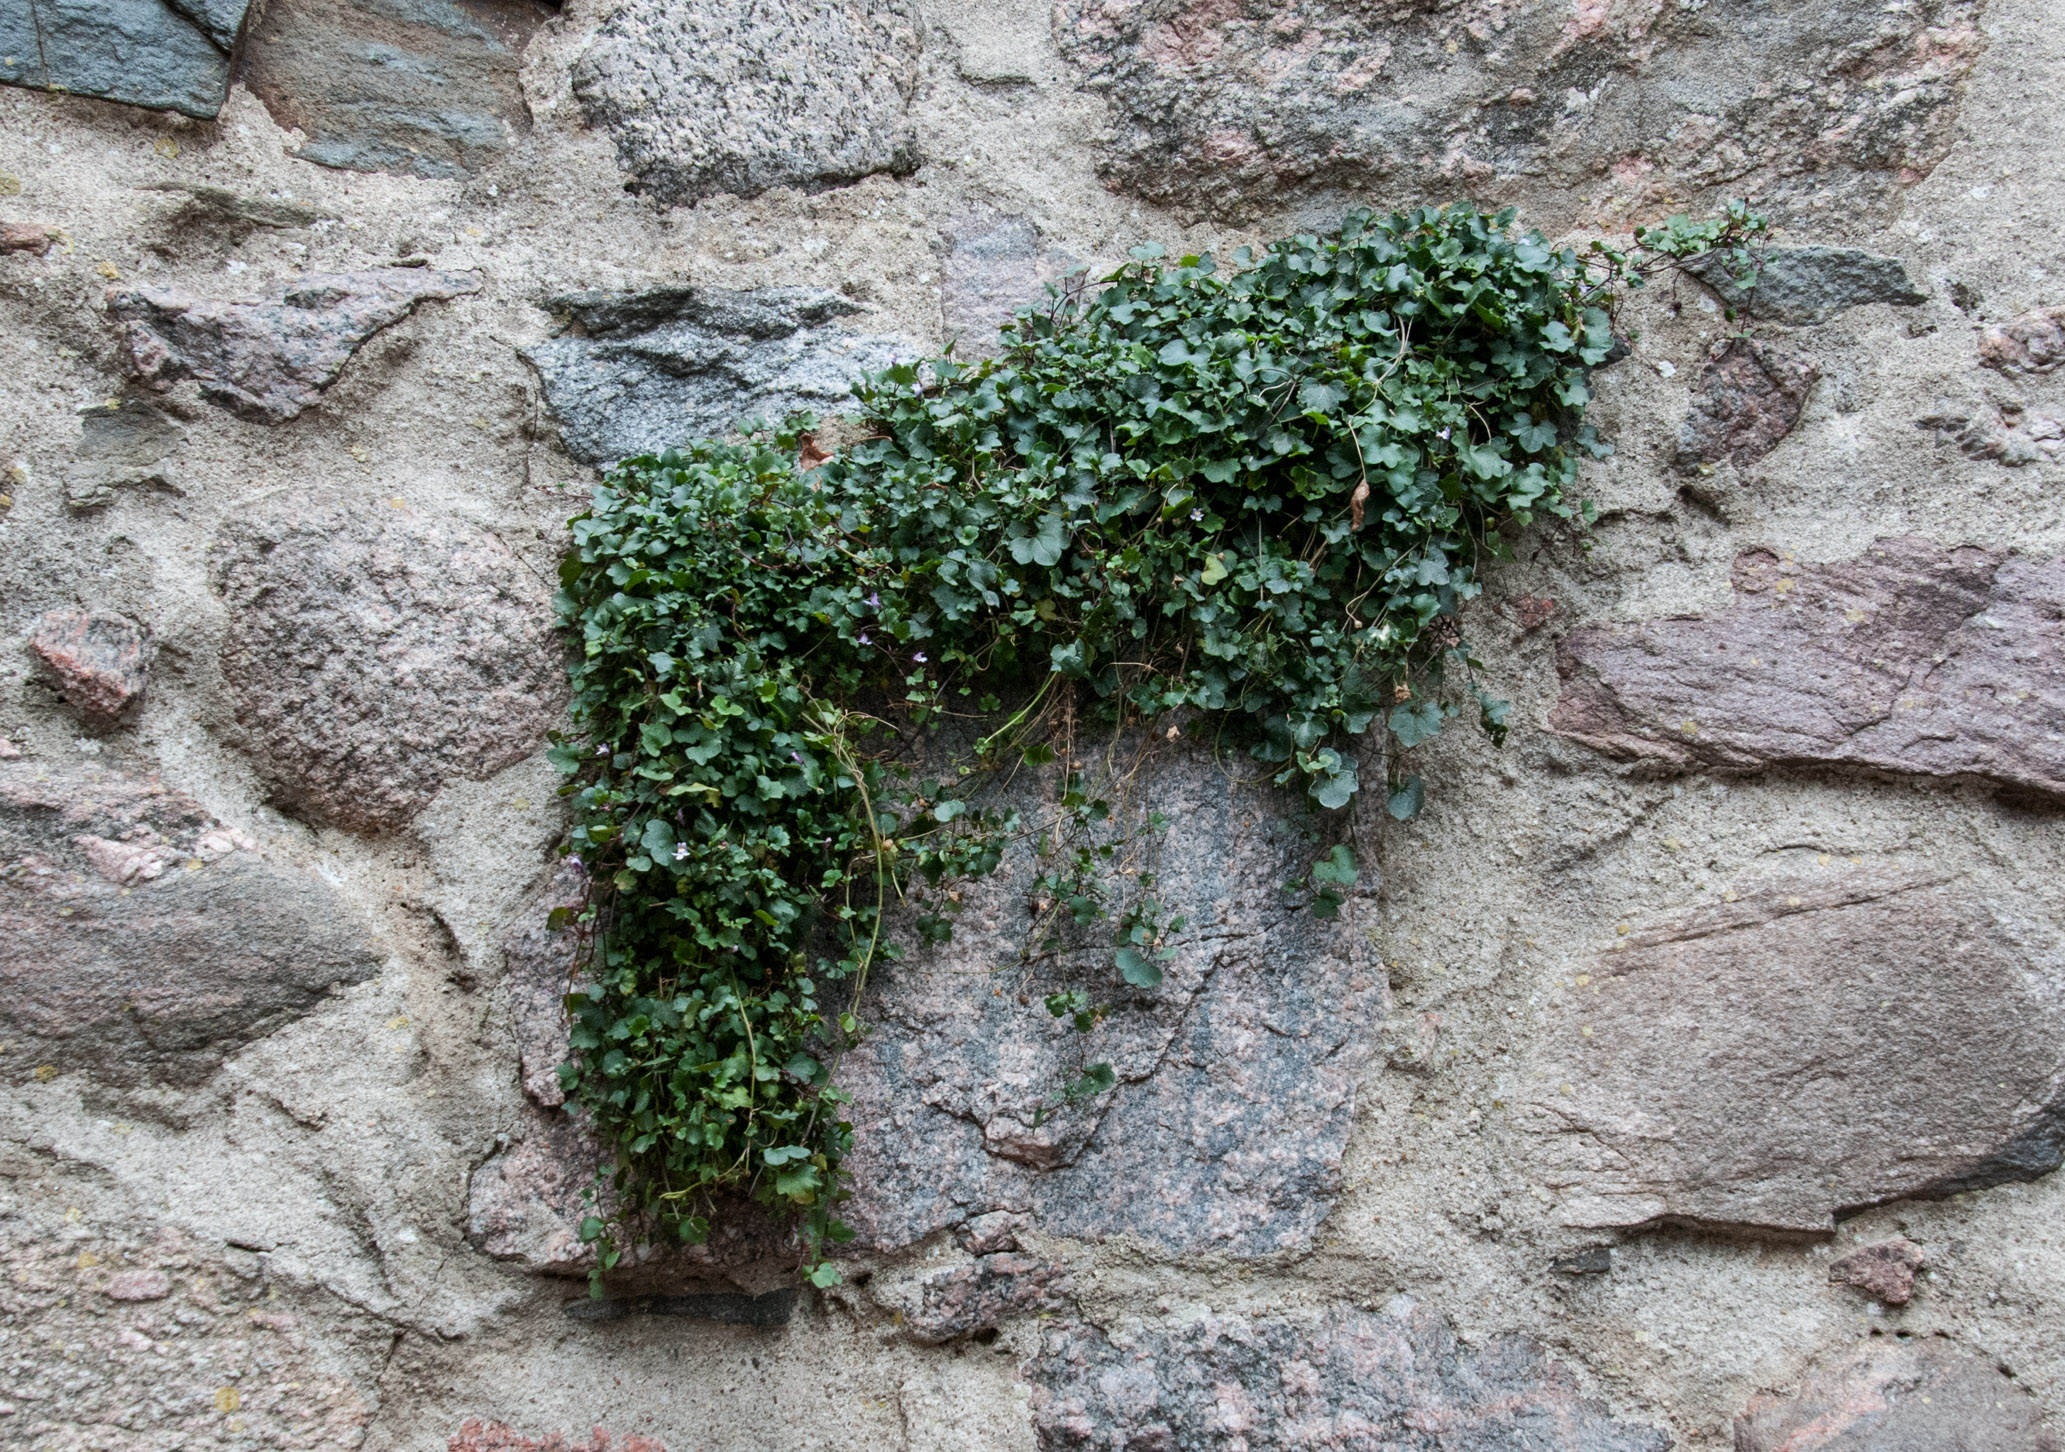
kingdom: Plantae
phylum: Tracheophyta
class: Magnoliopsida
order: Lamiales
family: Plantaginaceae
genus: Cymbalaria
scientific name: Cymbalaria muralis
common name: Ivy-leaved toadflax
